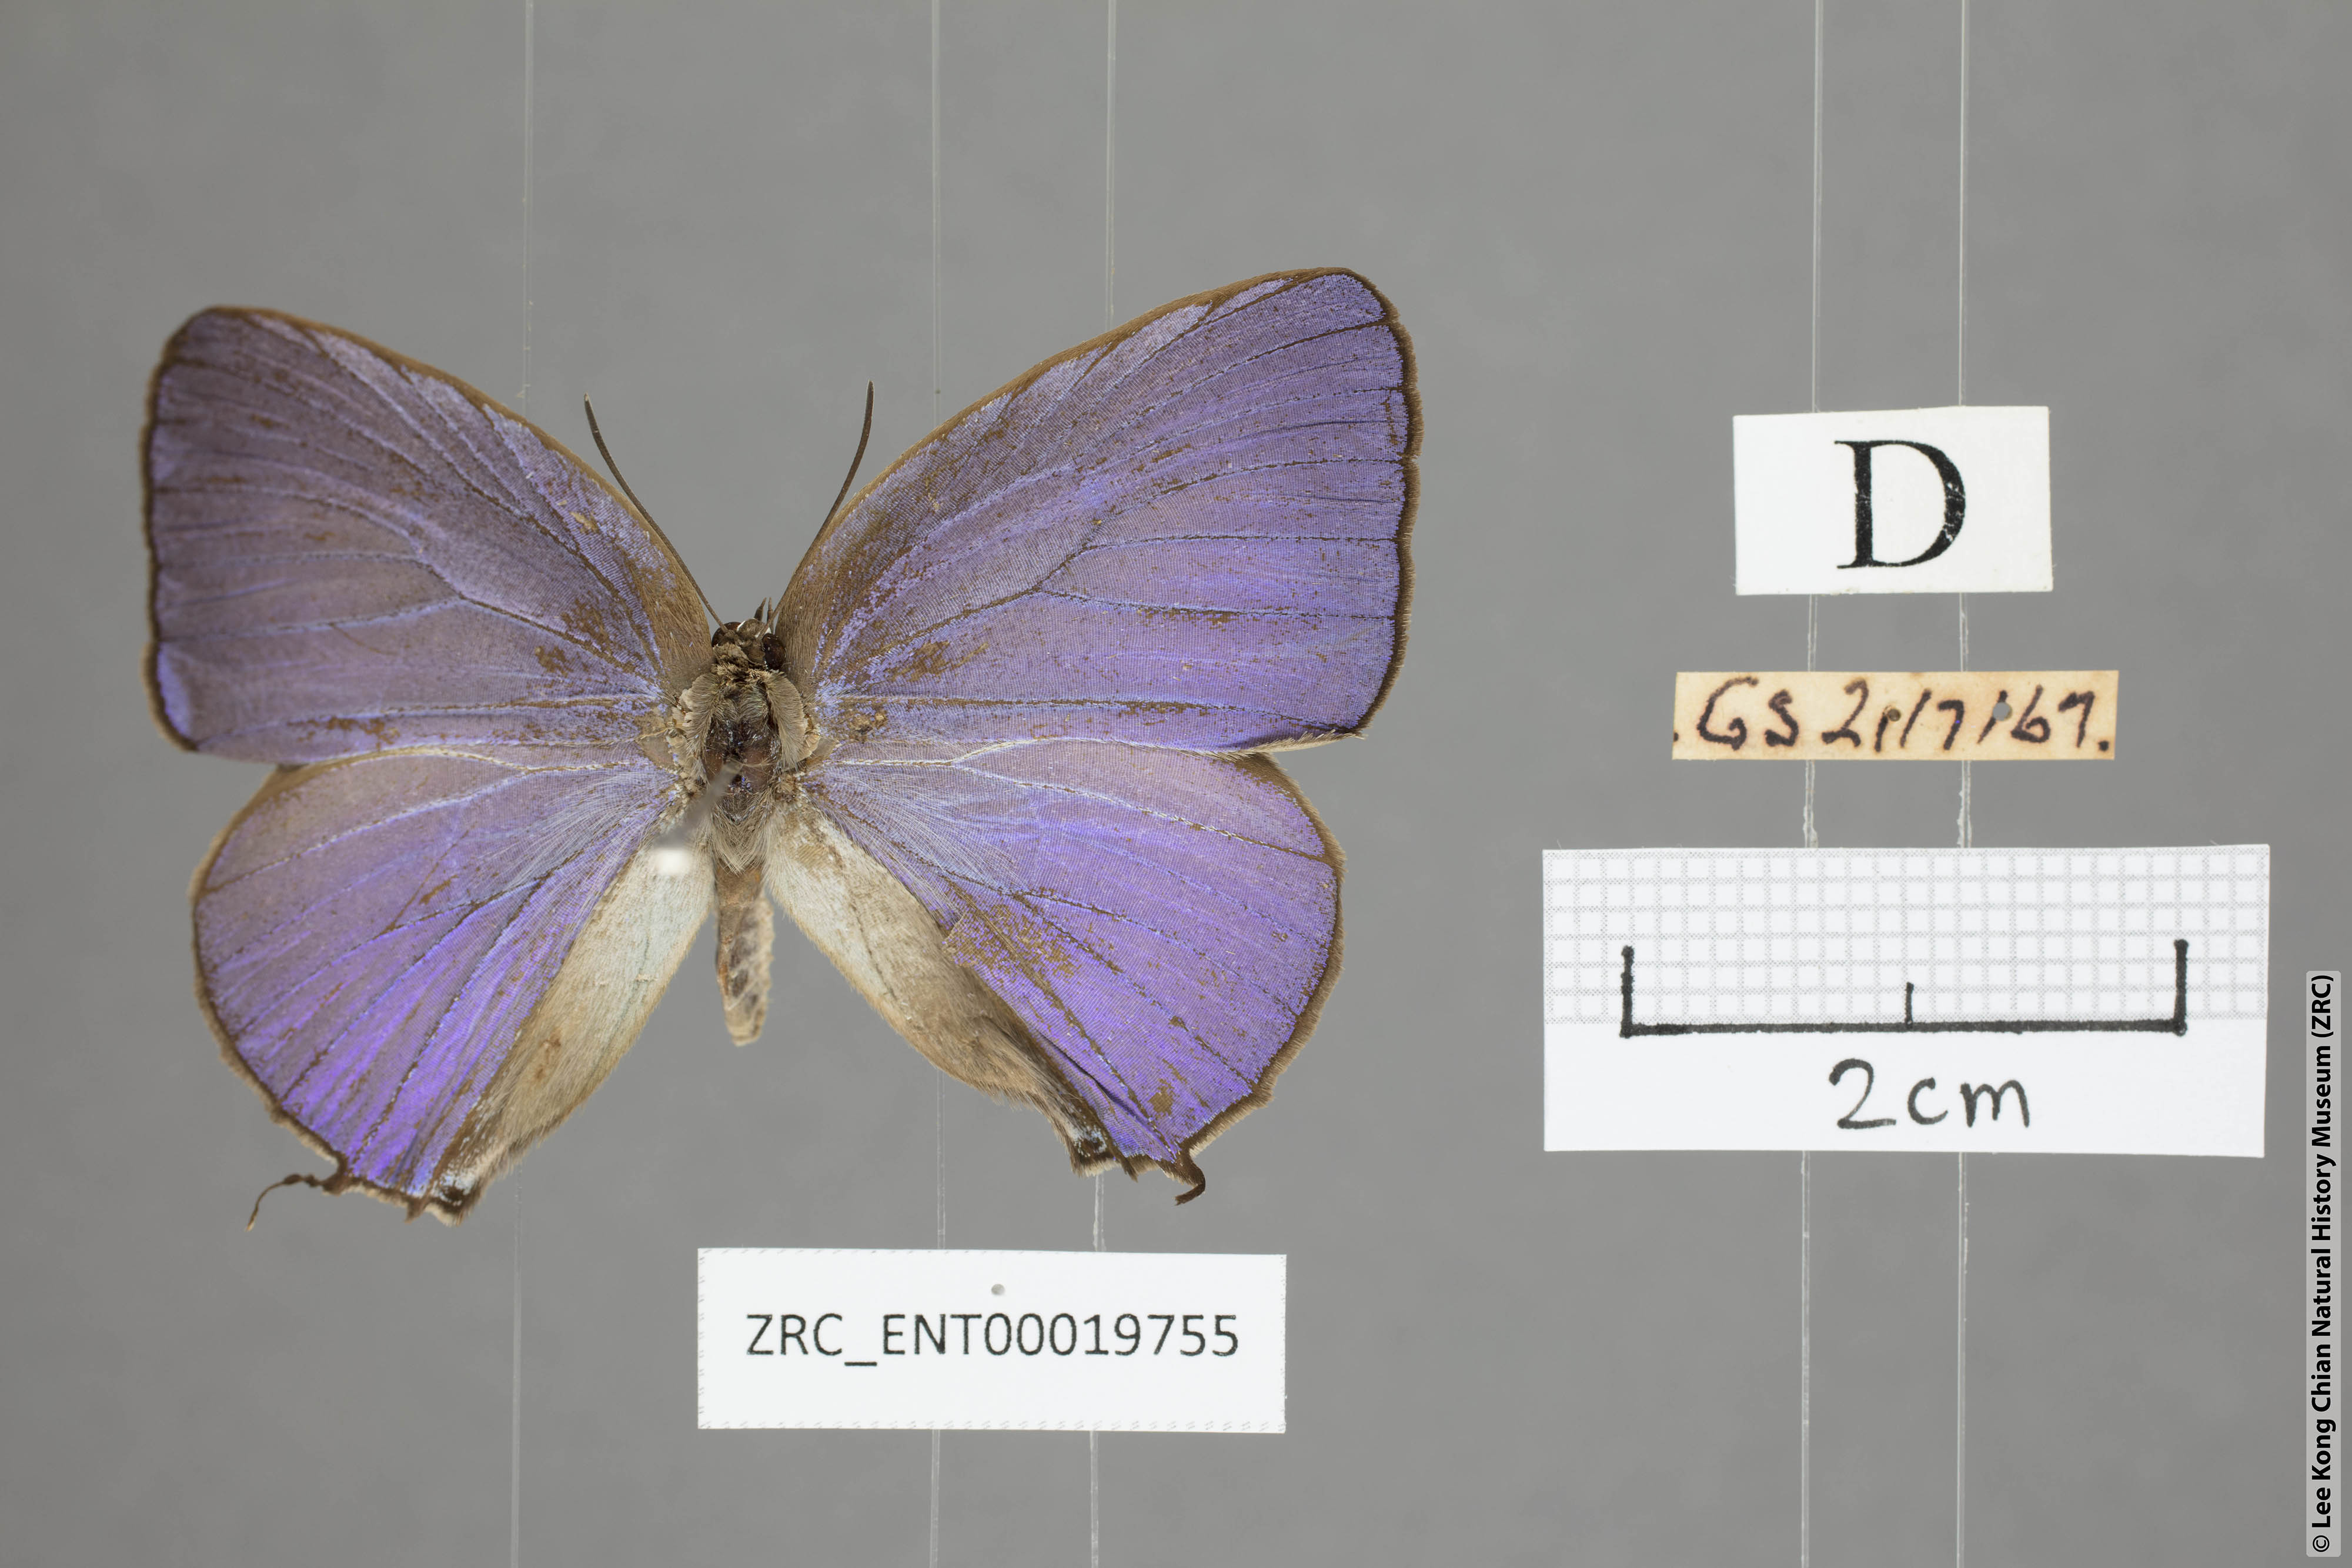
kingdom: Animalia
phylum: Arthropoda
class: Insecta
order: Lepidoptera
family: Lycaenidae
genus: Arhopala
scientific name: Arhopala opalina
